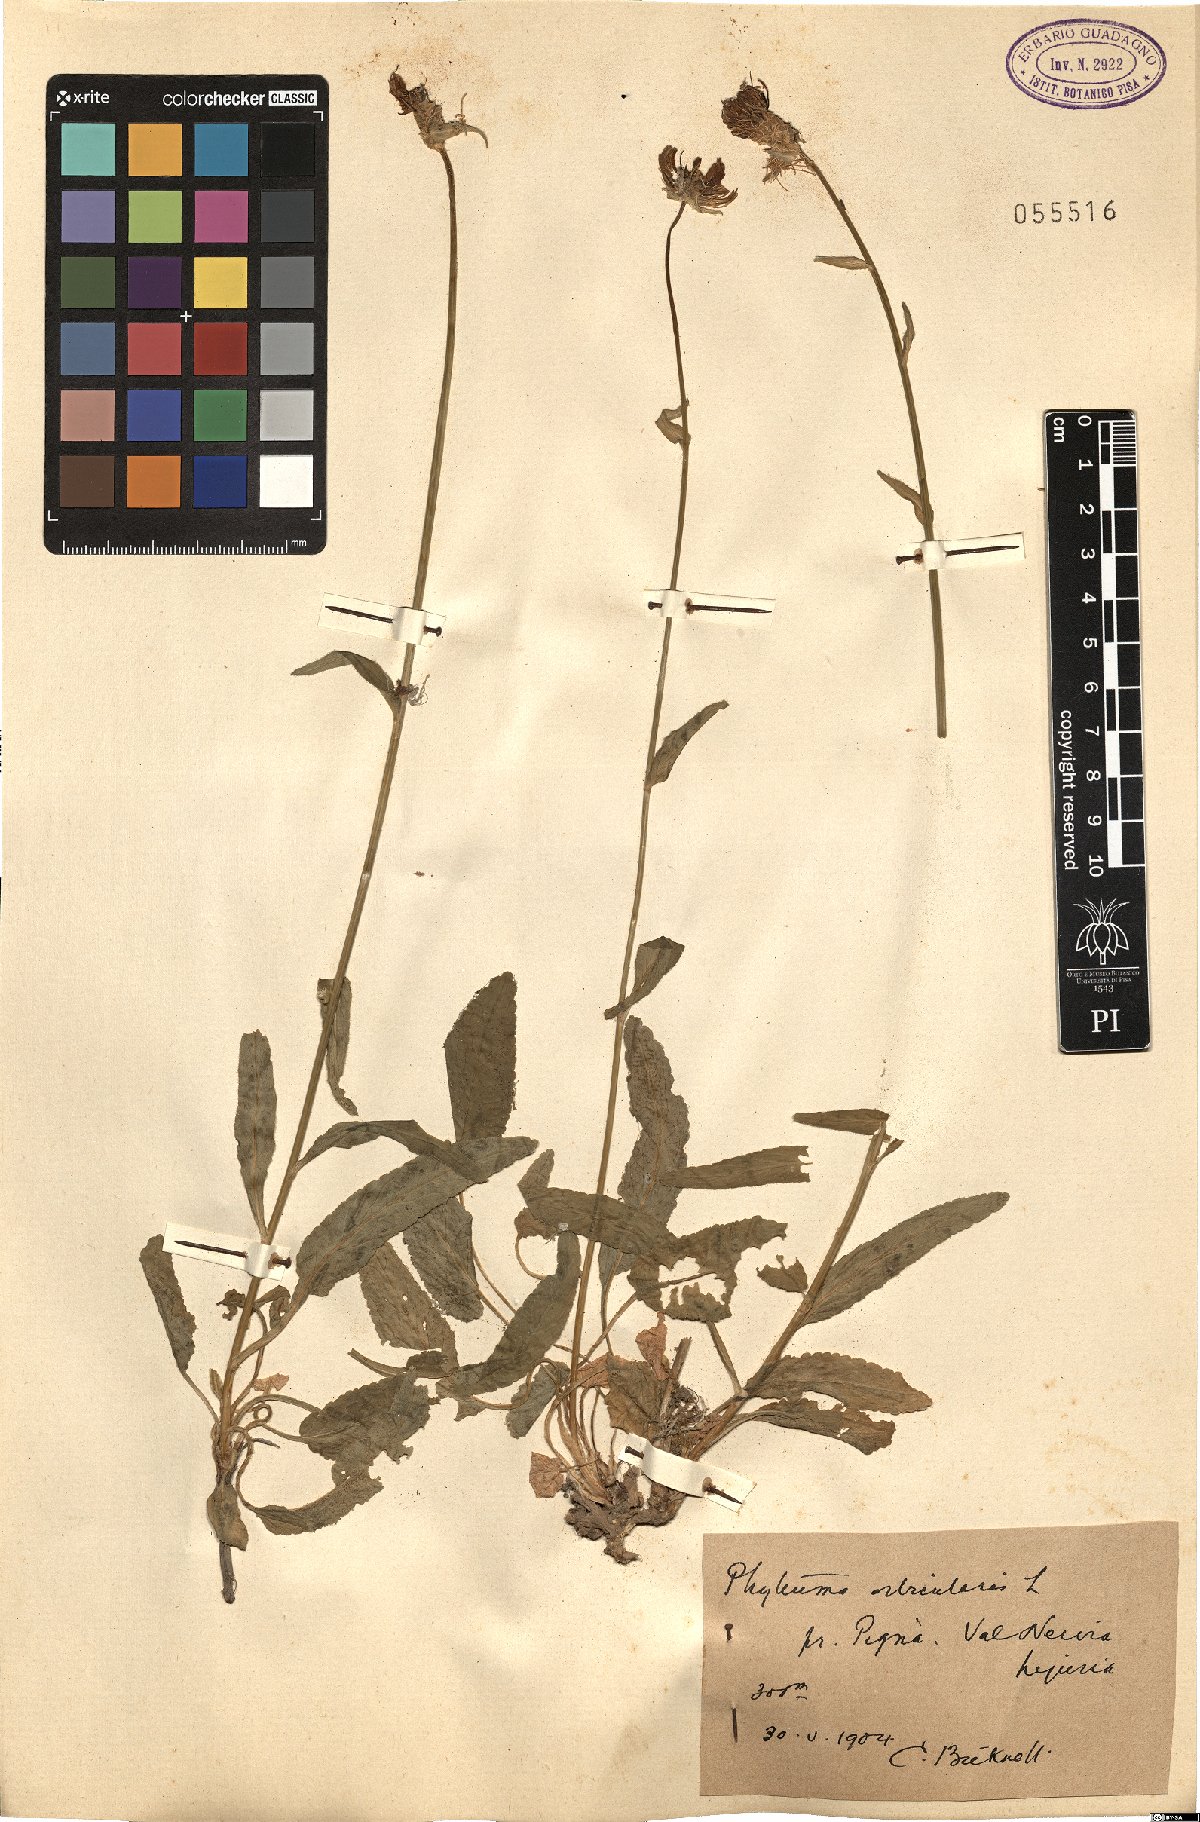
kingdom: Plantae
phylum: Tracheophyta
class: Magnoliopsida
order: Asterales
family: Campanulaceae
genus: Phyteuma
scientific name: Phyteuma orbiculare
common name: Round-headed rampion
